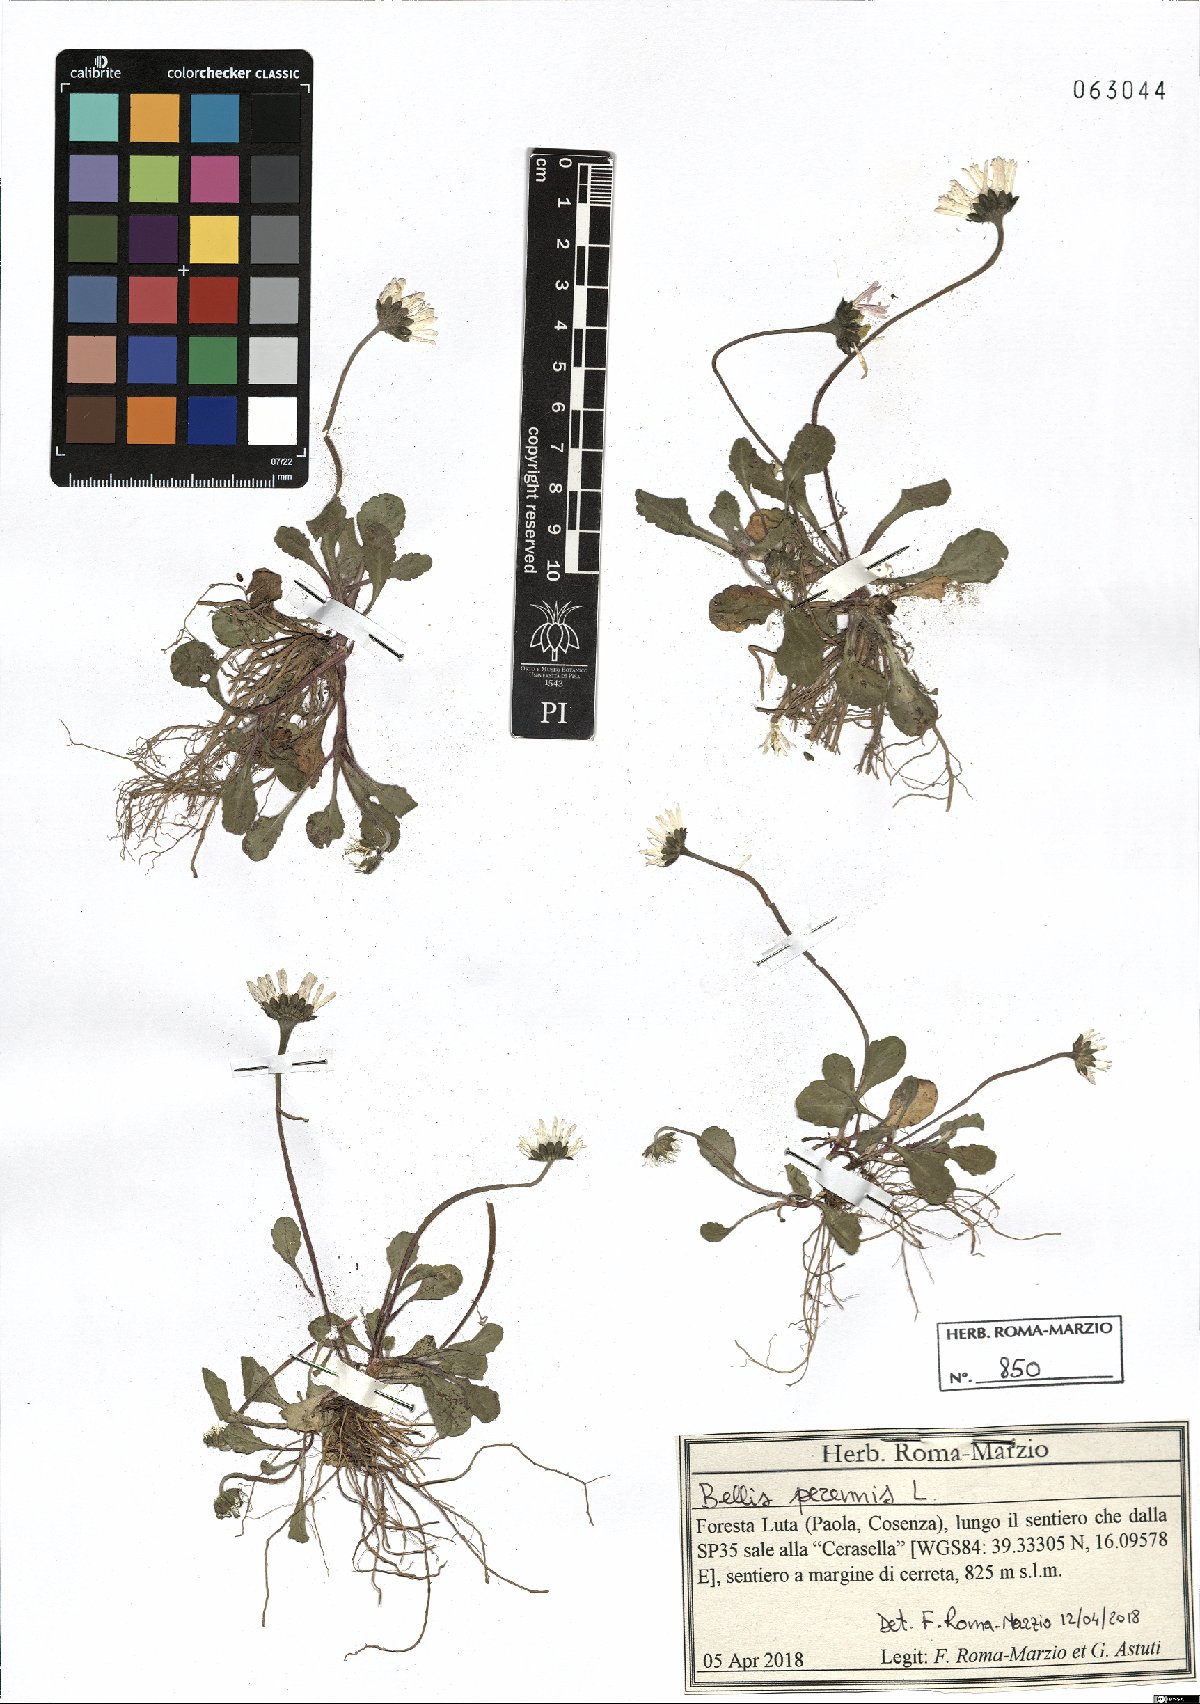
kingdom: Plantae
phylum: Tracheophyta
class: Magnoliopsida
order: Asterales
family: Asteraceae
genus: Bellis
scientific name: Bellis perennis
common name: Lawndaisy
